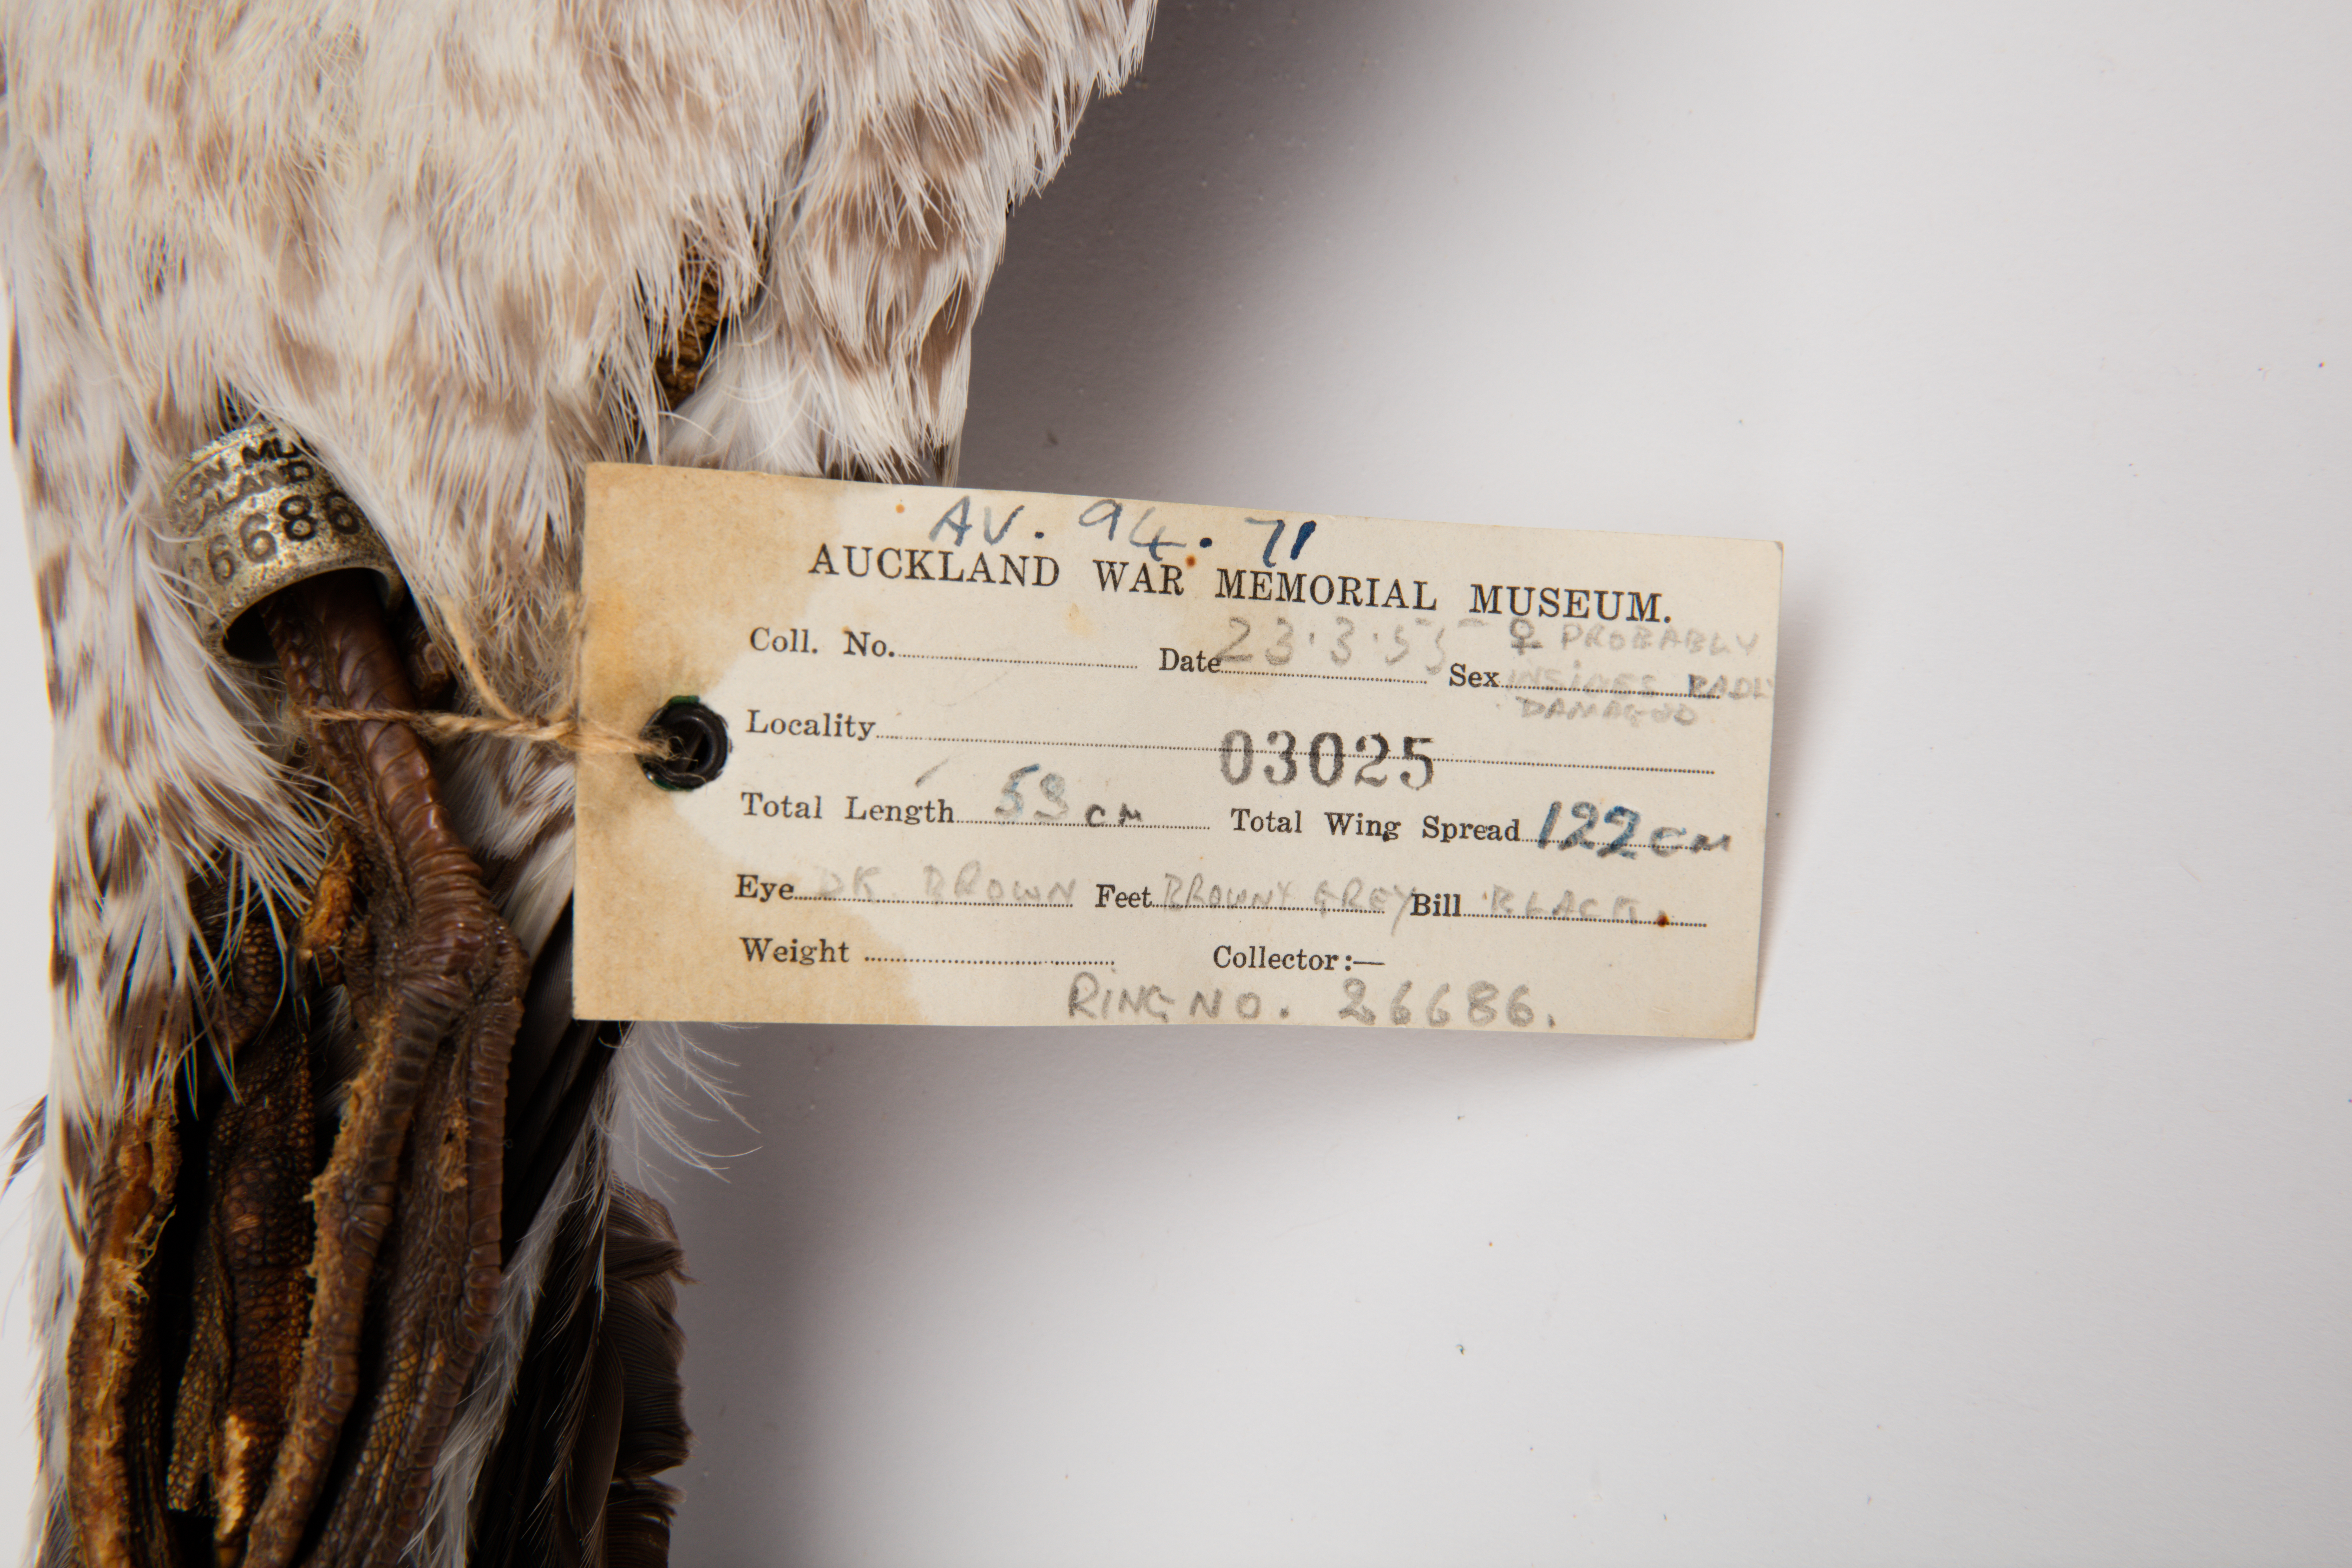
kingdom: Animalia
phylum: Chordata
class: Aves
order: Charadriiformes
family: Laridae
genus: Larus
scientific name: Larus dominicanus
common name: Kelp gull
